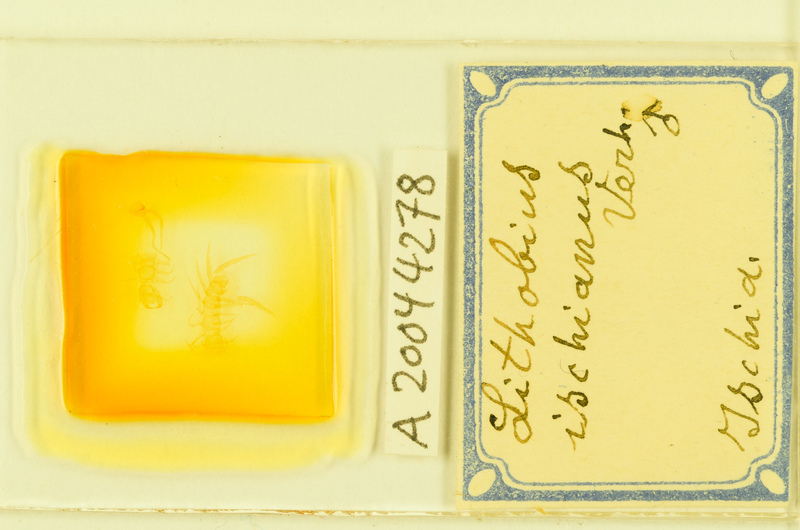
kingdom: Animalia
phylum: Arthropoda
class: Chilopoda
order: Lithobiomorpha
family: Lithobiidae
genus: Lithobius
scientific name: Lithobius cassinensis
